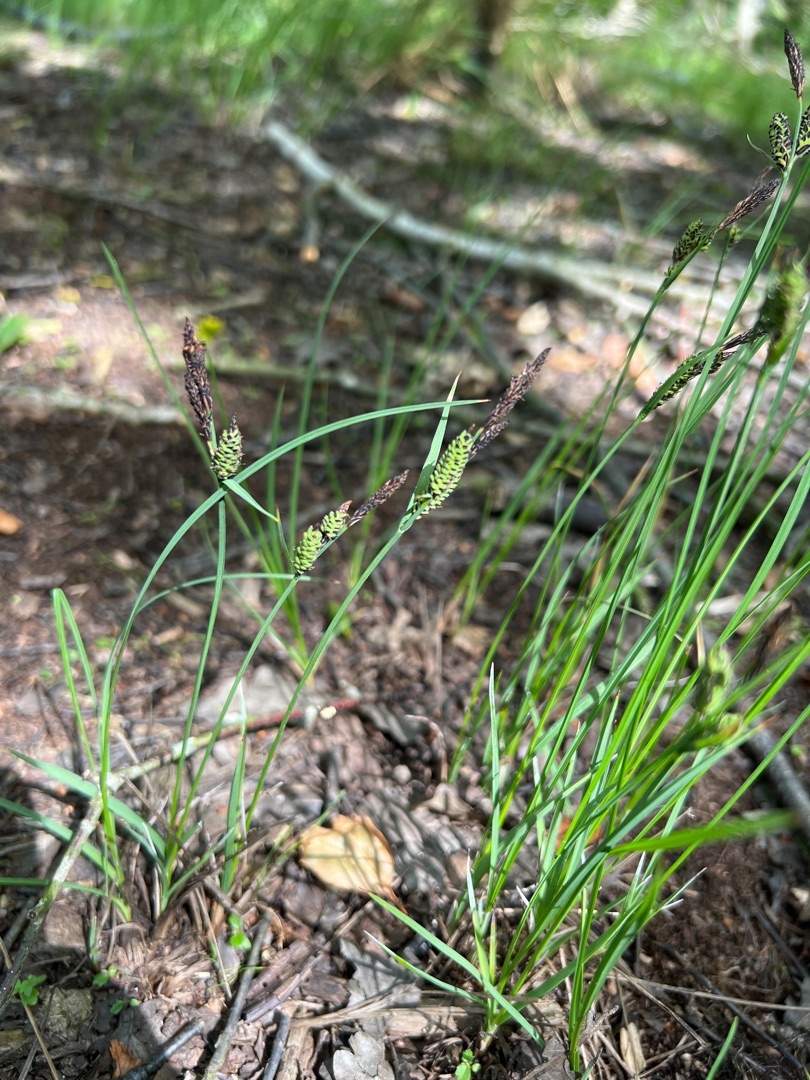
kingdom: Plantae
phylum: Tracheophyta
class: Liliopsida
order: Poales
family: Cyperaceae
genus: Carex
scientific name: Carex nigra
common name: Almindelig star
